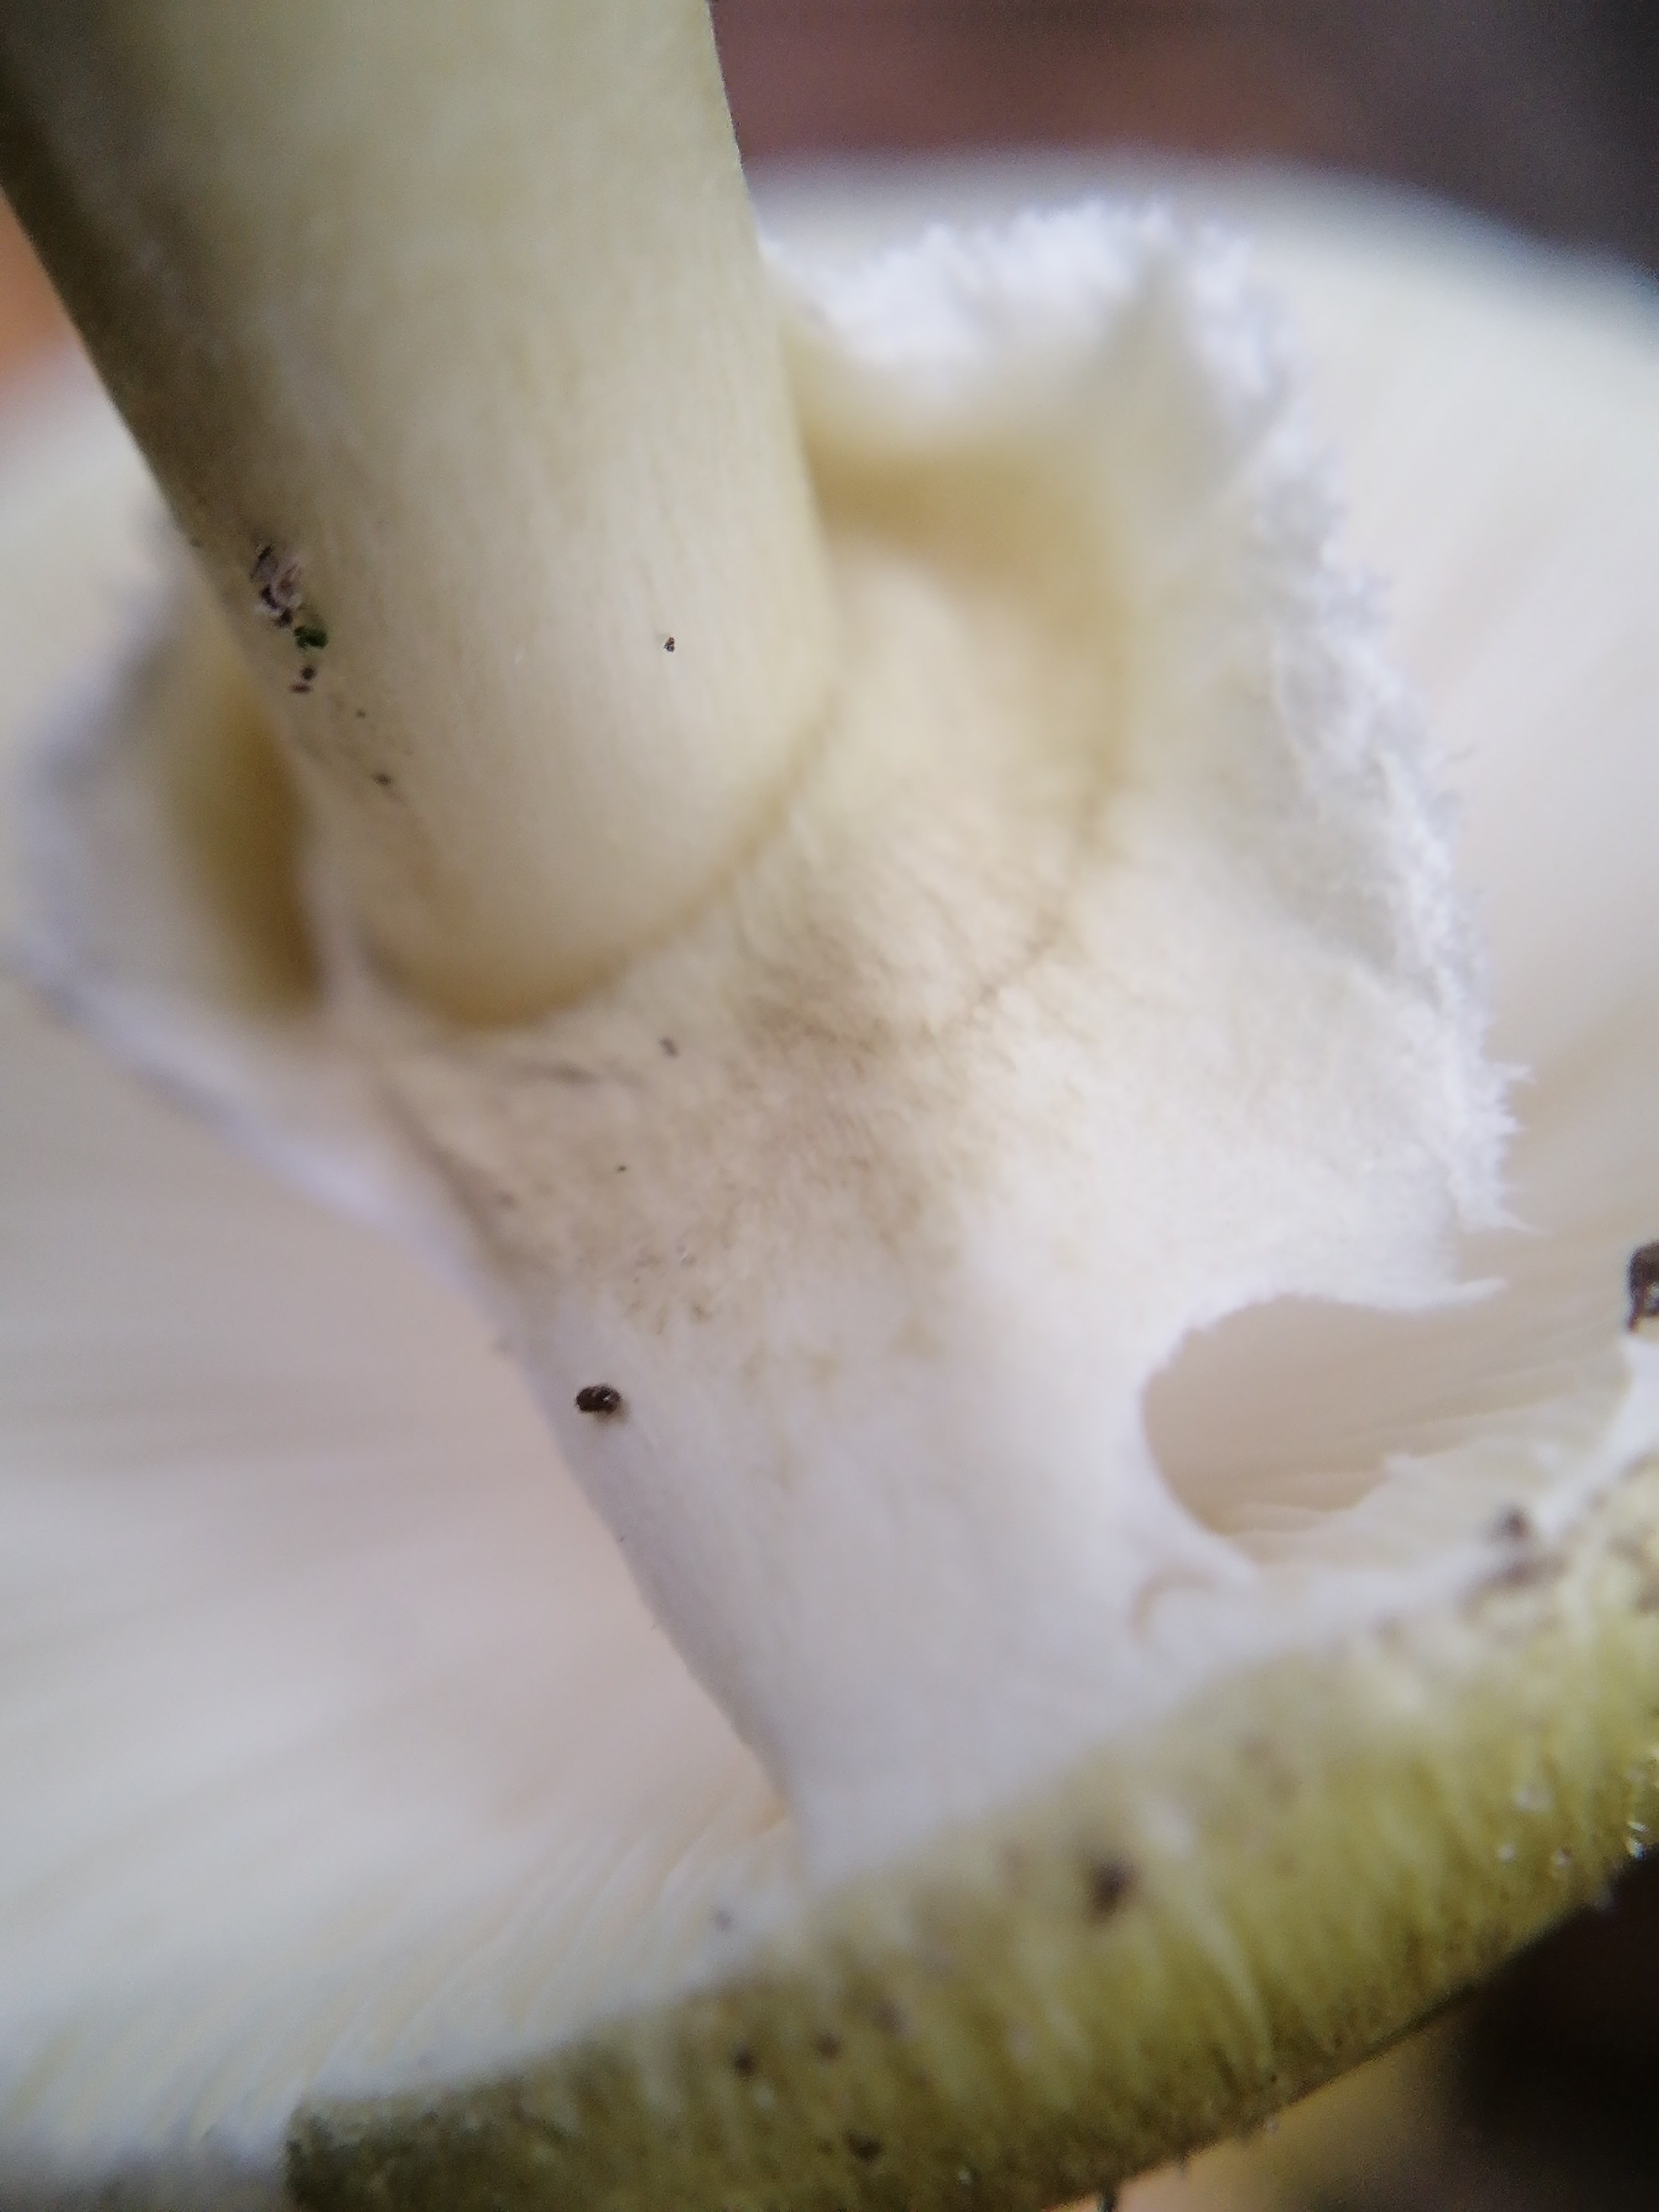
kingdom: Fungi
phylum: Basidiomycota
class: Agaricomycetes
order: Agaricales
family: Amanitaceae
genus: Amanita
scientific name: Amanita phalloides
